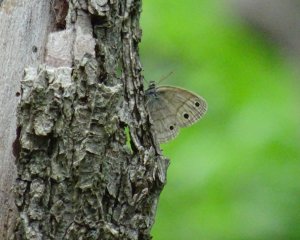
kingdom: Animalia
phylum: Arthropoda
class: Insecta
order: Lepidoptera
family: Nymphalidae
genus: Euptychia
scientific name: Euptychia cymela
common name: Little Wood Satyr
